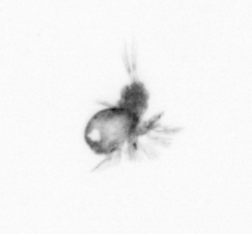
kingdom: Animalia
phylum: Arthropoda
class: Copepoda
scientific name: Copepoda
